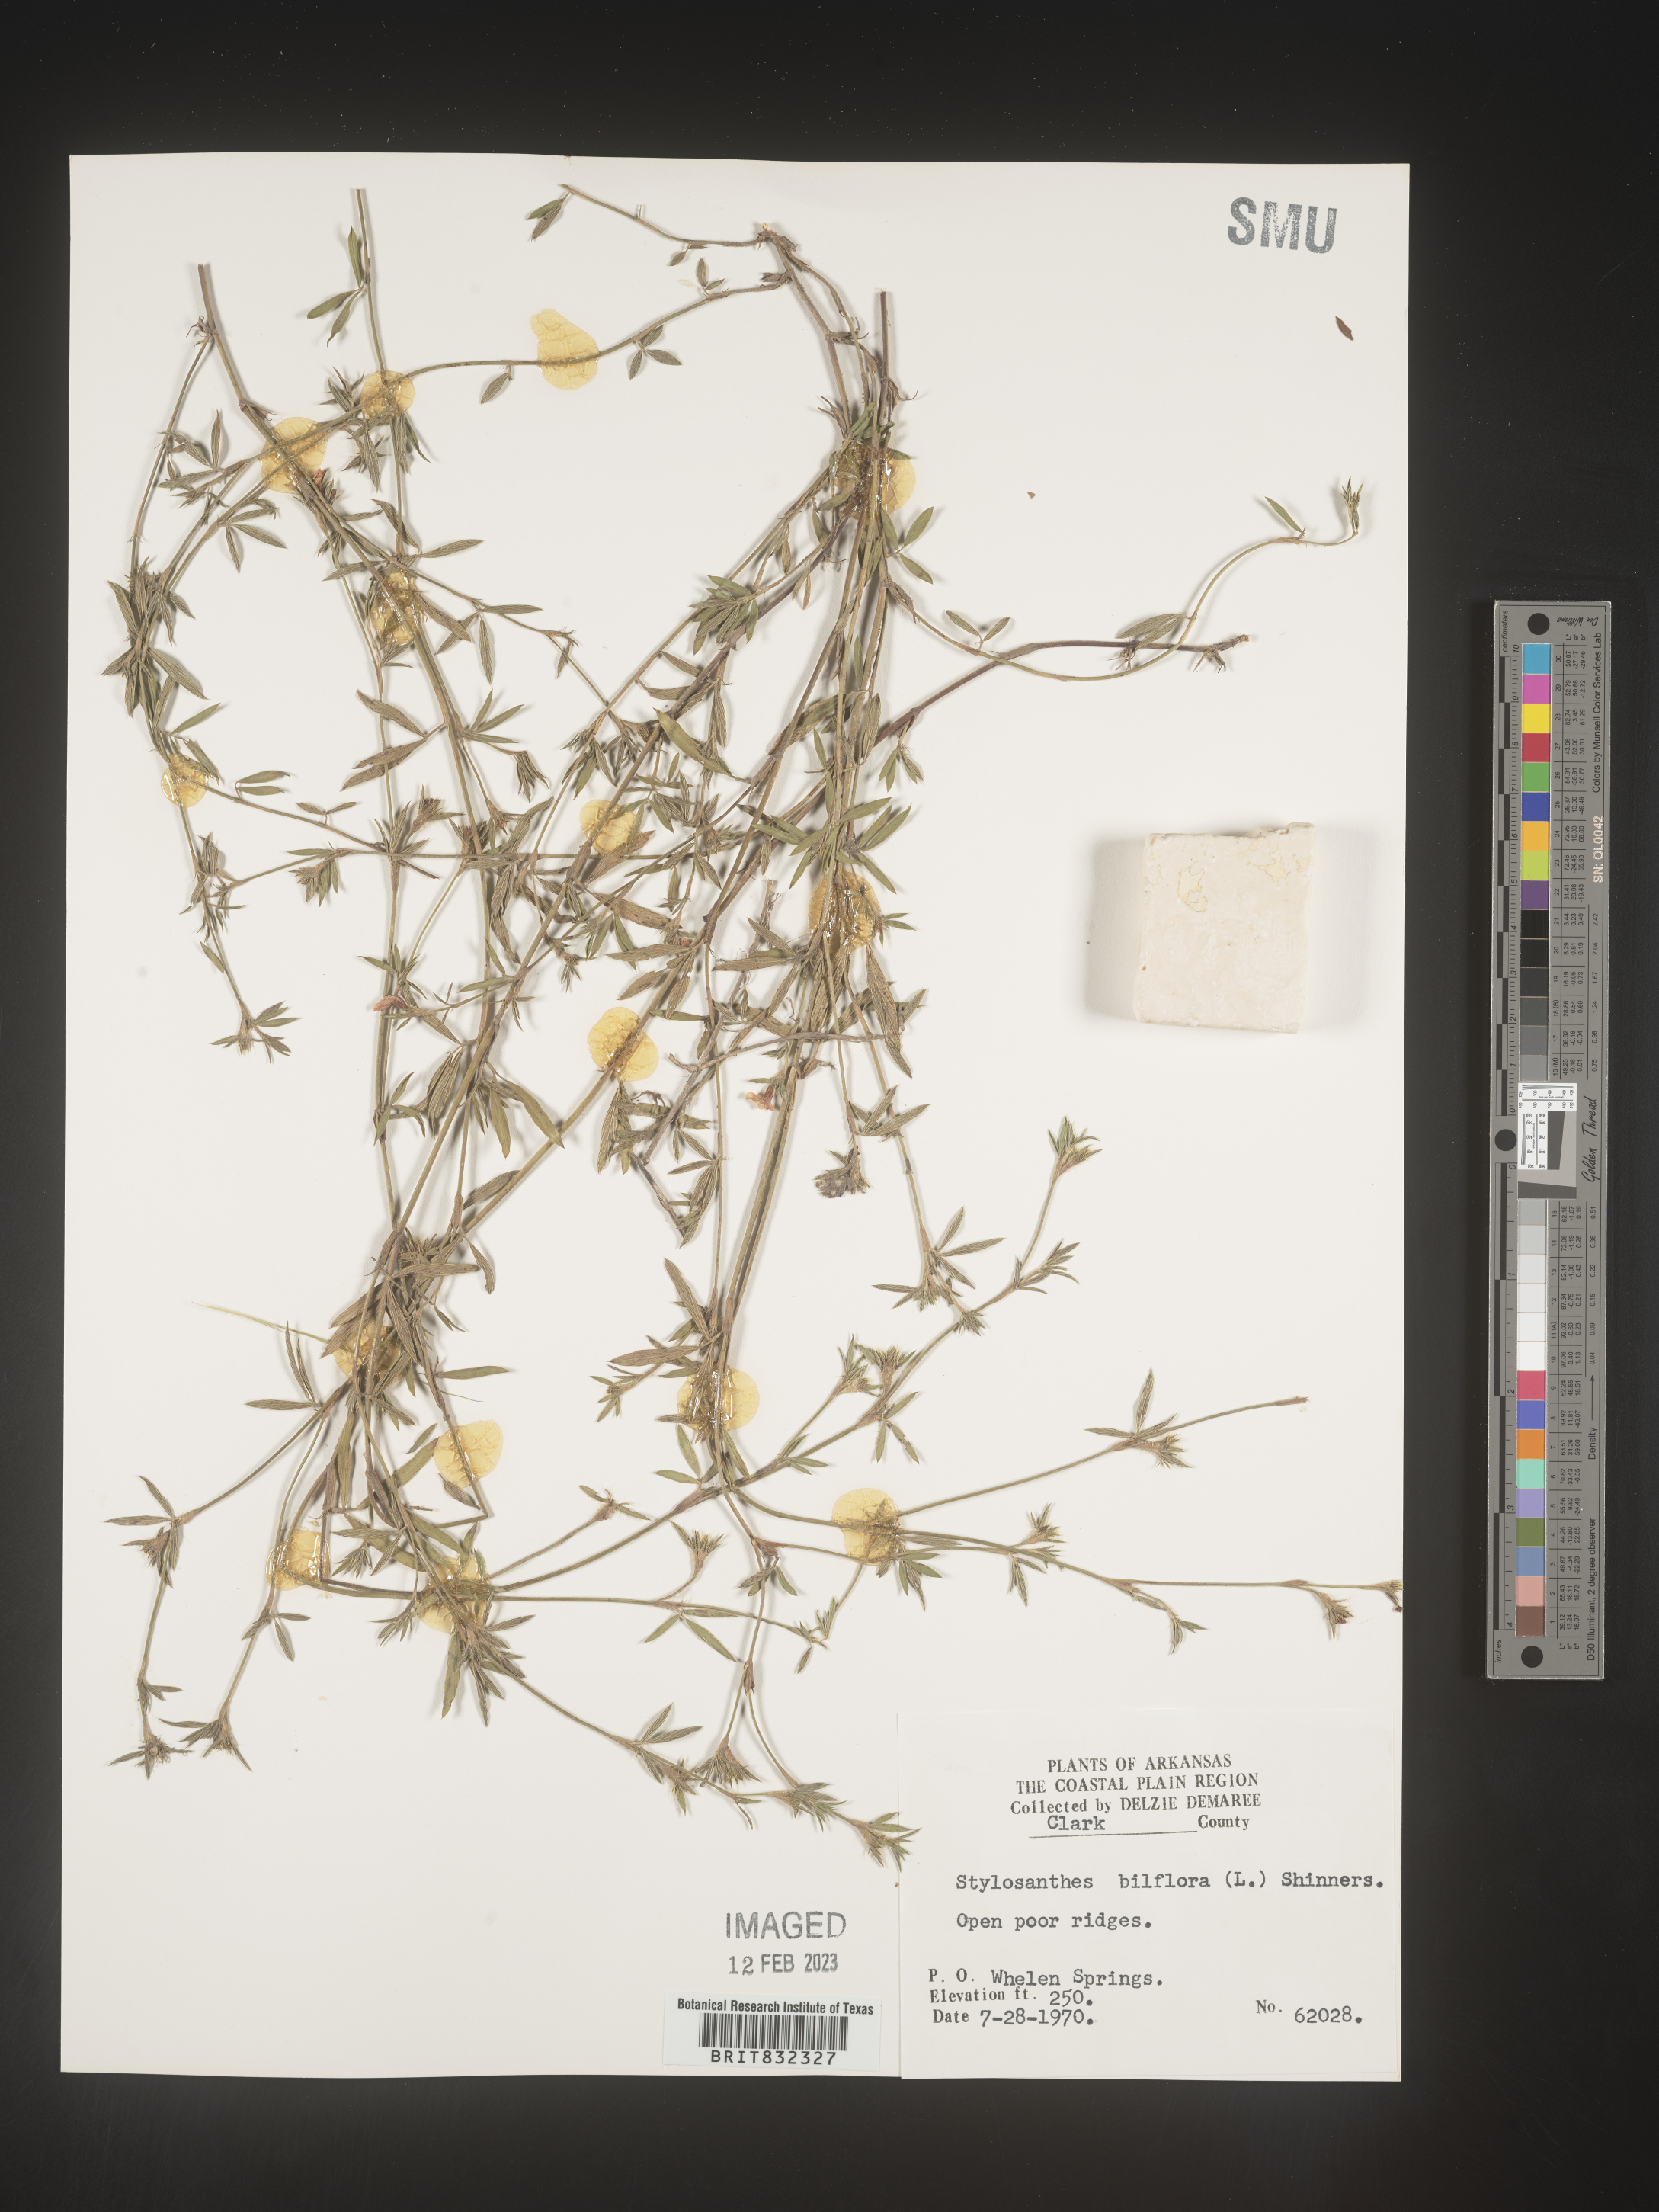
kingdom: Plantae
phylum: Tracheophyta
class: Magnoliopsida
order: Fabales
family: Fabaceae
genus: Stylosanthes
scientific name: Stylosanthes biflora
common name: Two-flower pencil-flower
